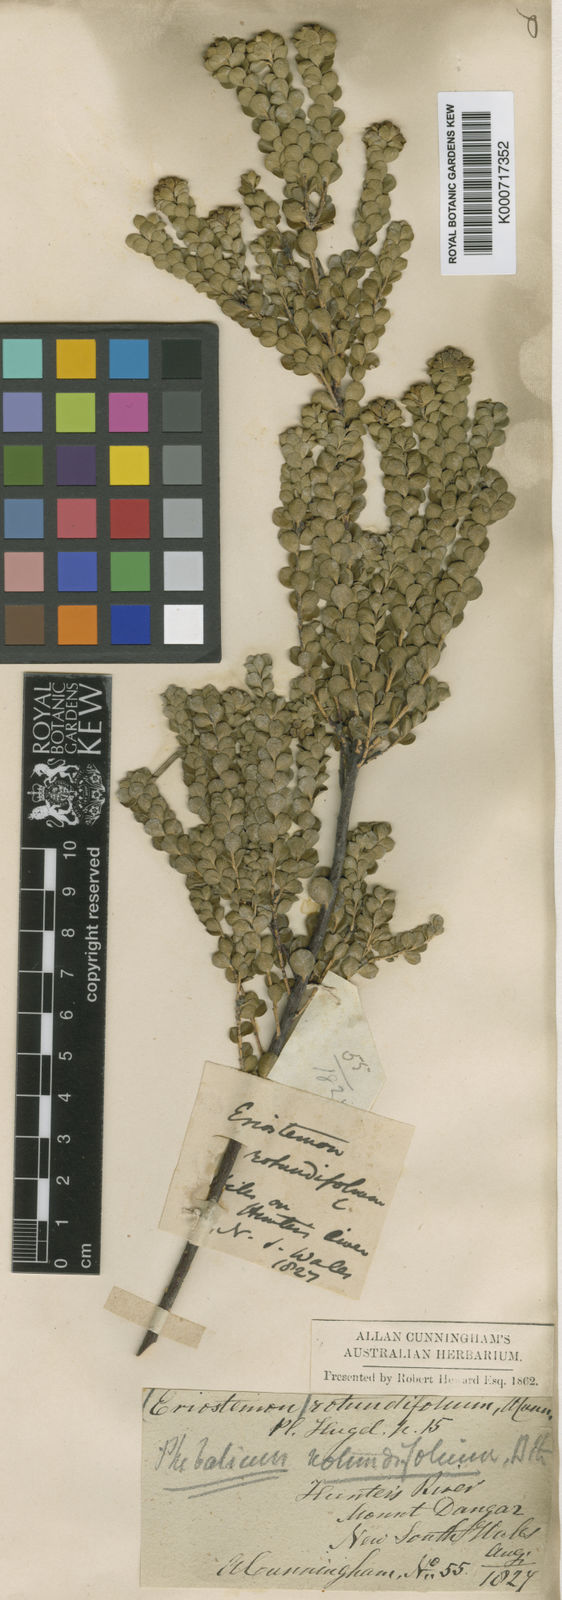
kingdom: Plantae
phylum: Tracheophyta
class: Magnoliopsida
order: Sapindales
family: Rutaceae
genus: Leionema
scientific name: Leionema rotundifolium
